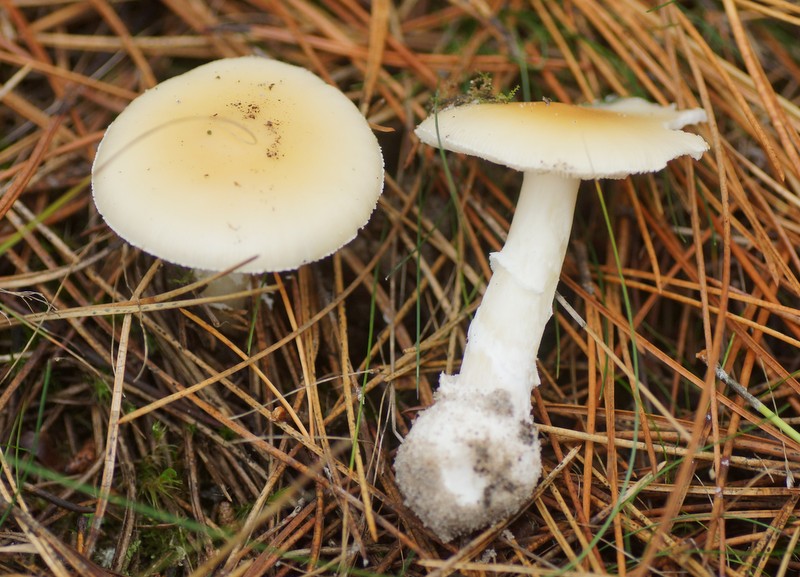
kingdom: Fungi
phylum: Basidiomycota
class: Agaricomycetes
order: Agaricales
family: Amanitaceae
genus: Amanita
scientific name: Amanita gemmata
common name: okkergul fluesvamp
